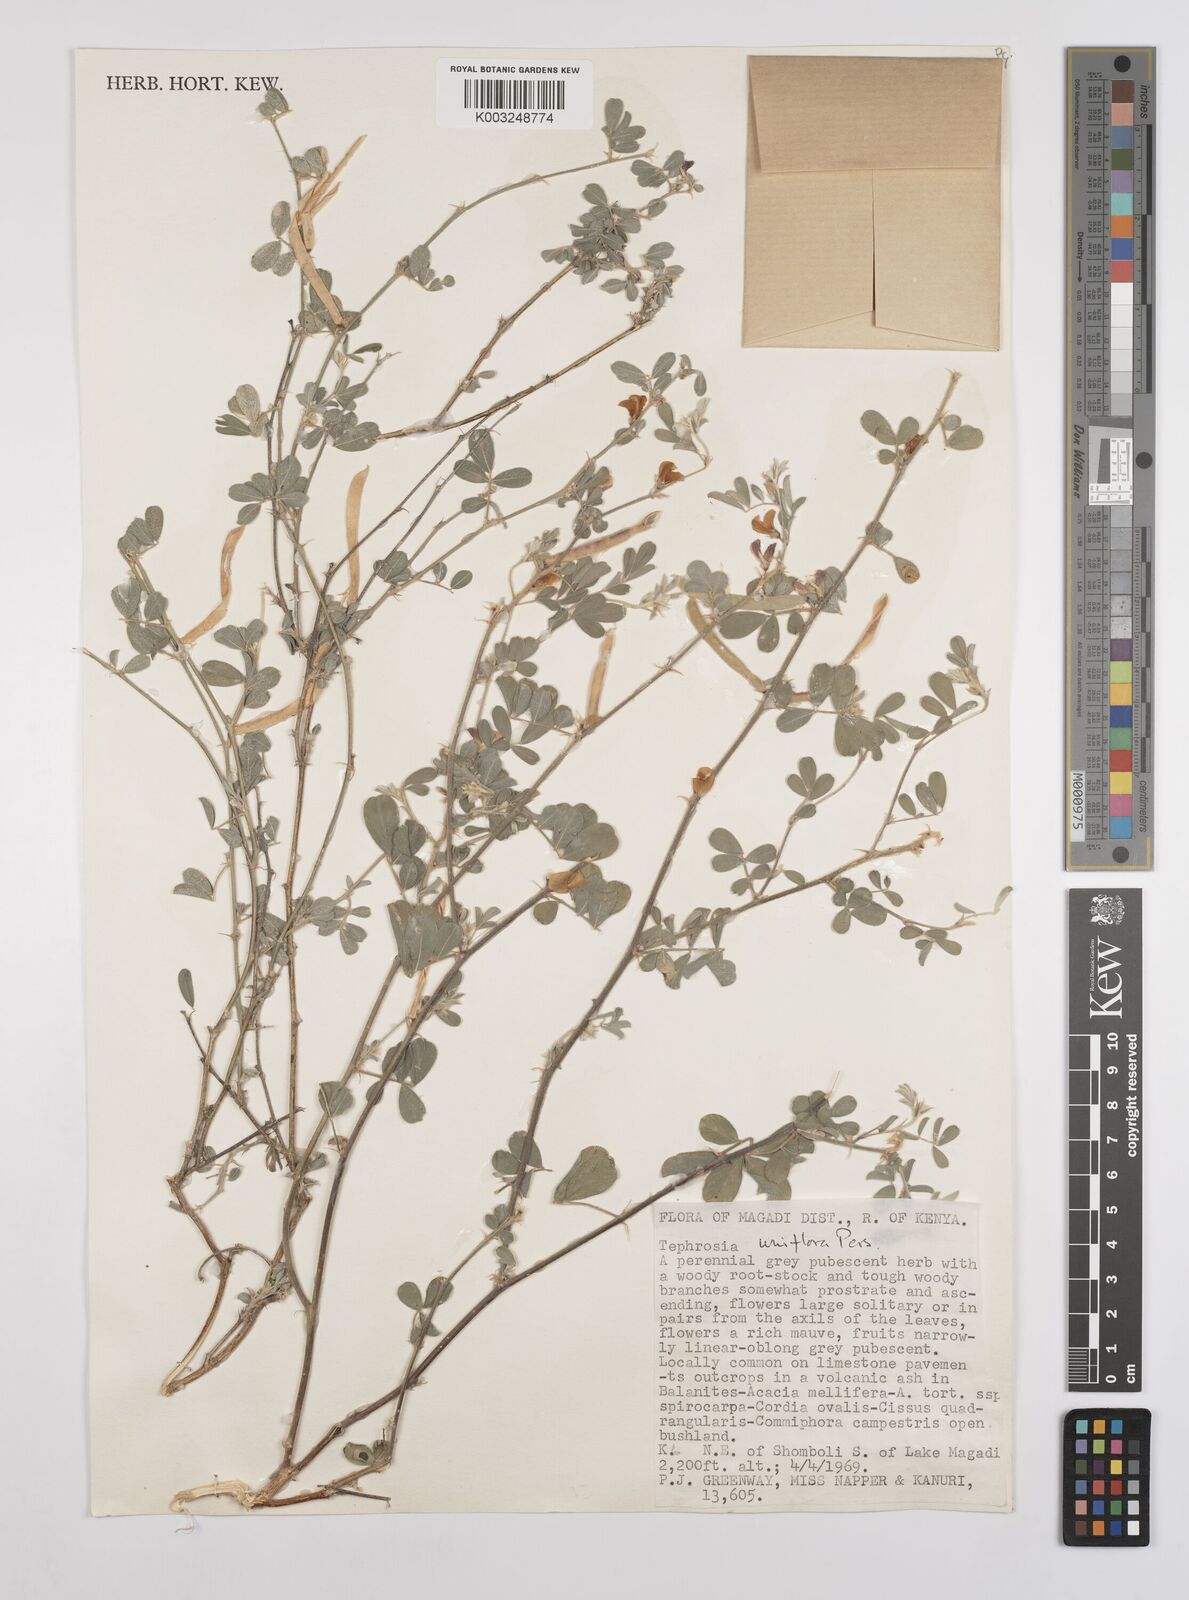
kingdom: Plantae
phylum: Tracheophyta
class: Magnoliopsida
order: Fabales
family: Fabaceae
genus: Tephrosia
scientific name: Tephrosia uniflora
